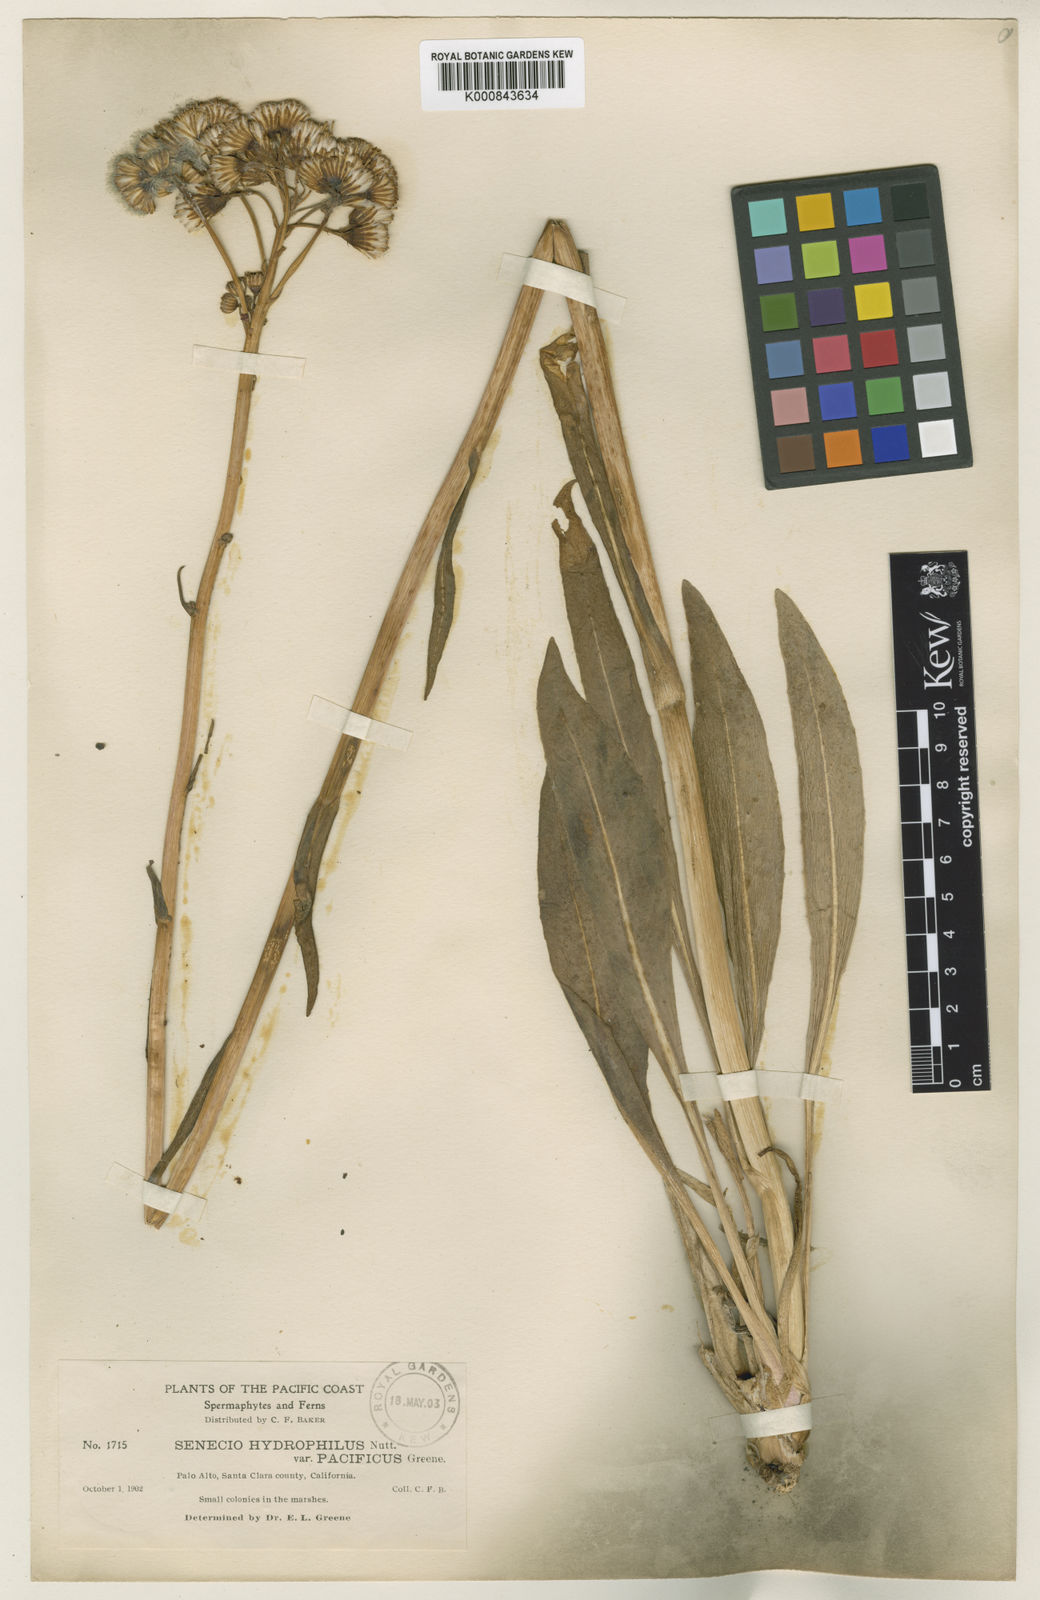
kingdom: Plantae
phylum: Tracheophyta
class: Magnoliopsida
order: Asterales
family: Asteraceae
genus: Senecio
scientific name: Senecio hydrophilus
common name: Water ragwort
